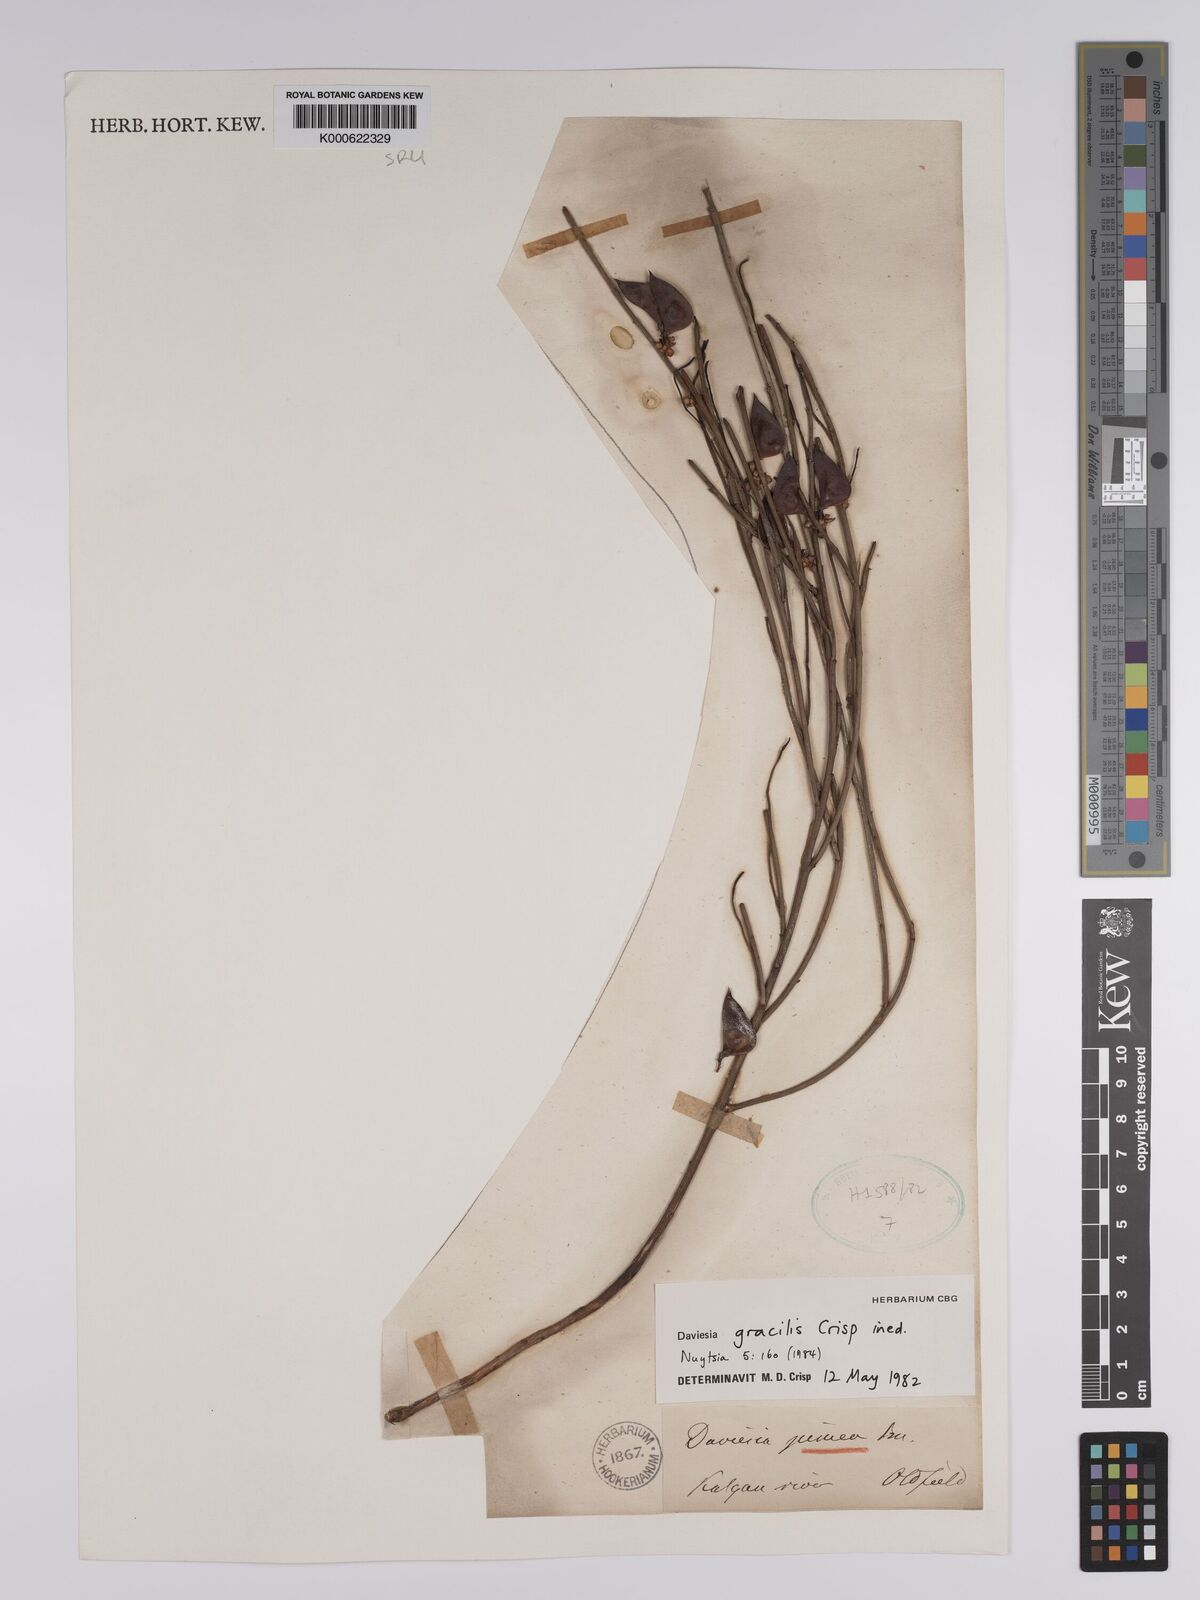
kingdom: Plantae
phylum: Tracheophyta
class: Magnoliopsida
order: Fabales
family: Fabaceae
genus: Daviesia
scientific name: Daviesia gracilis
